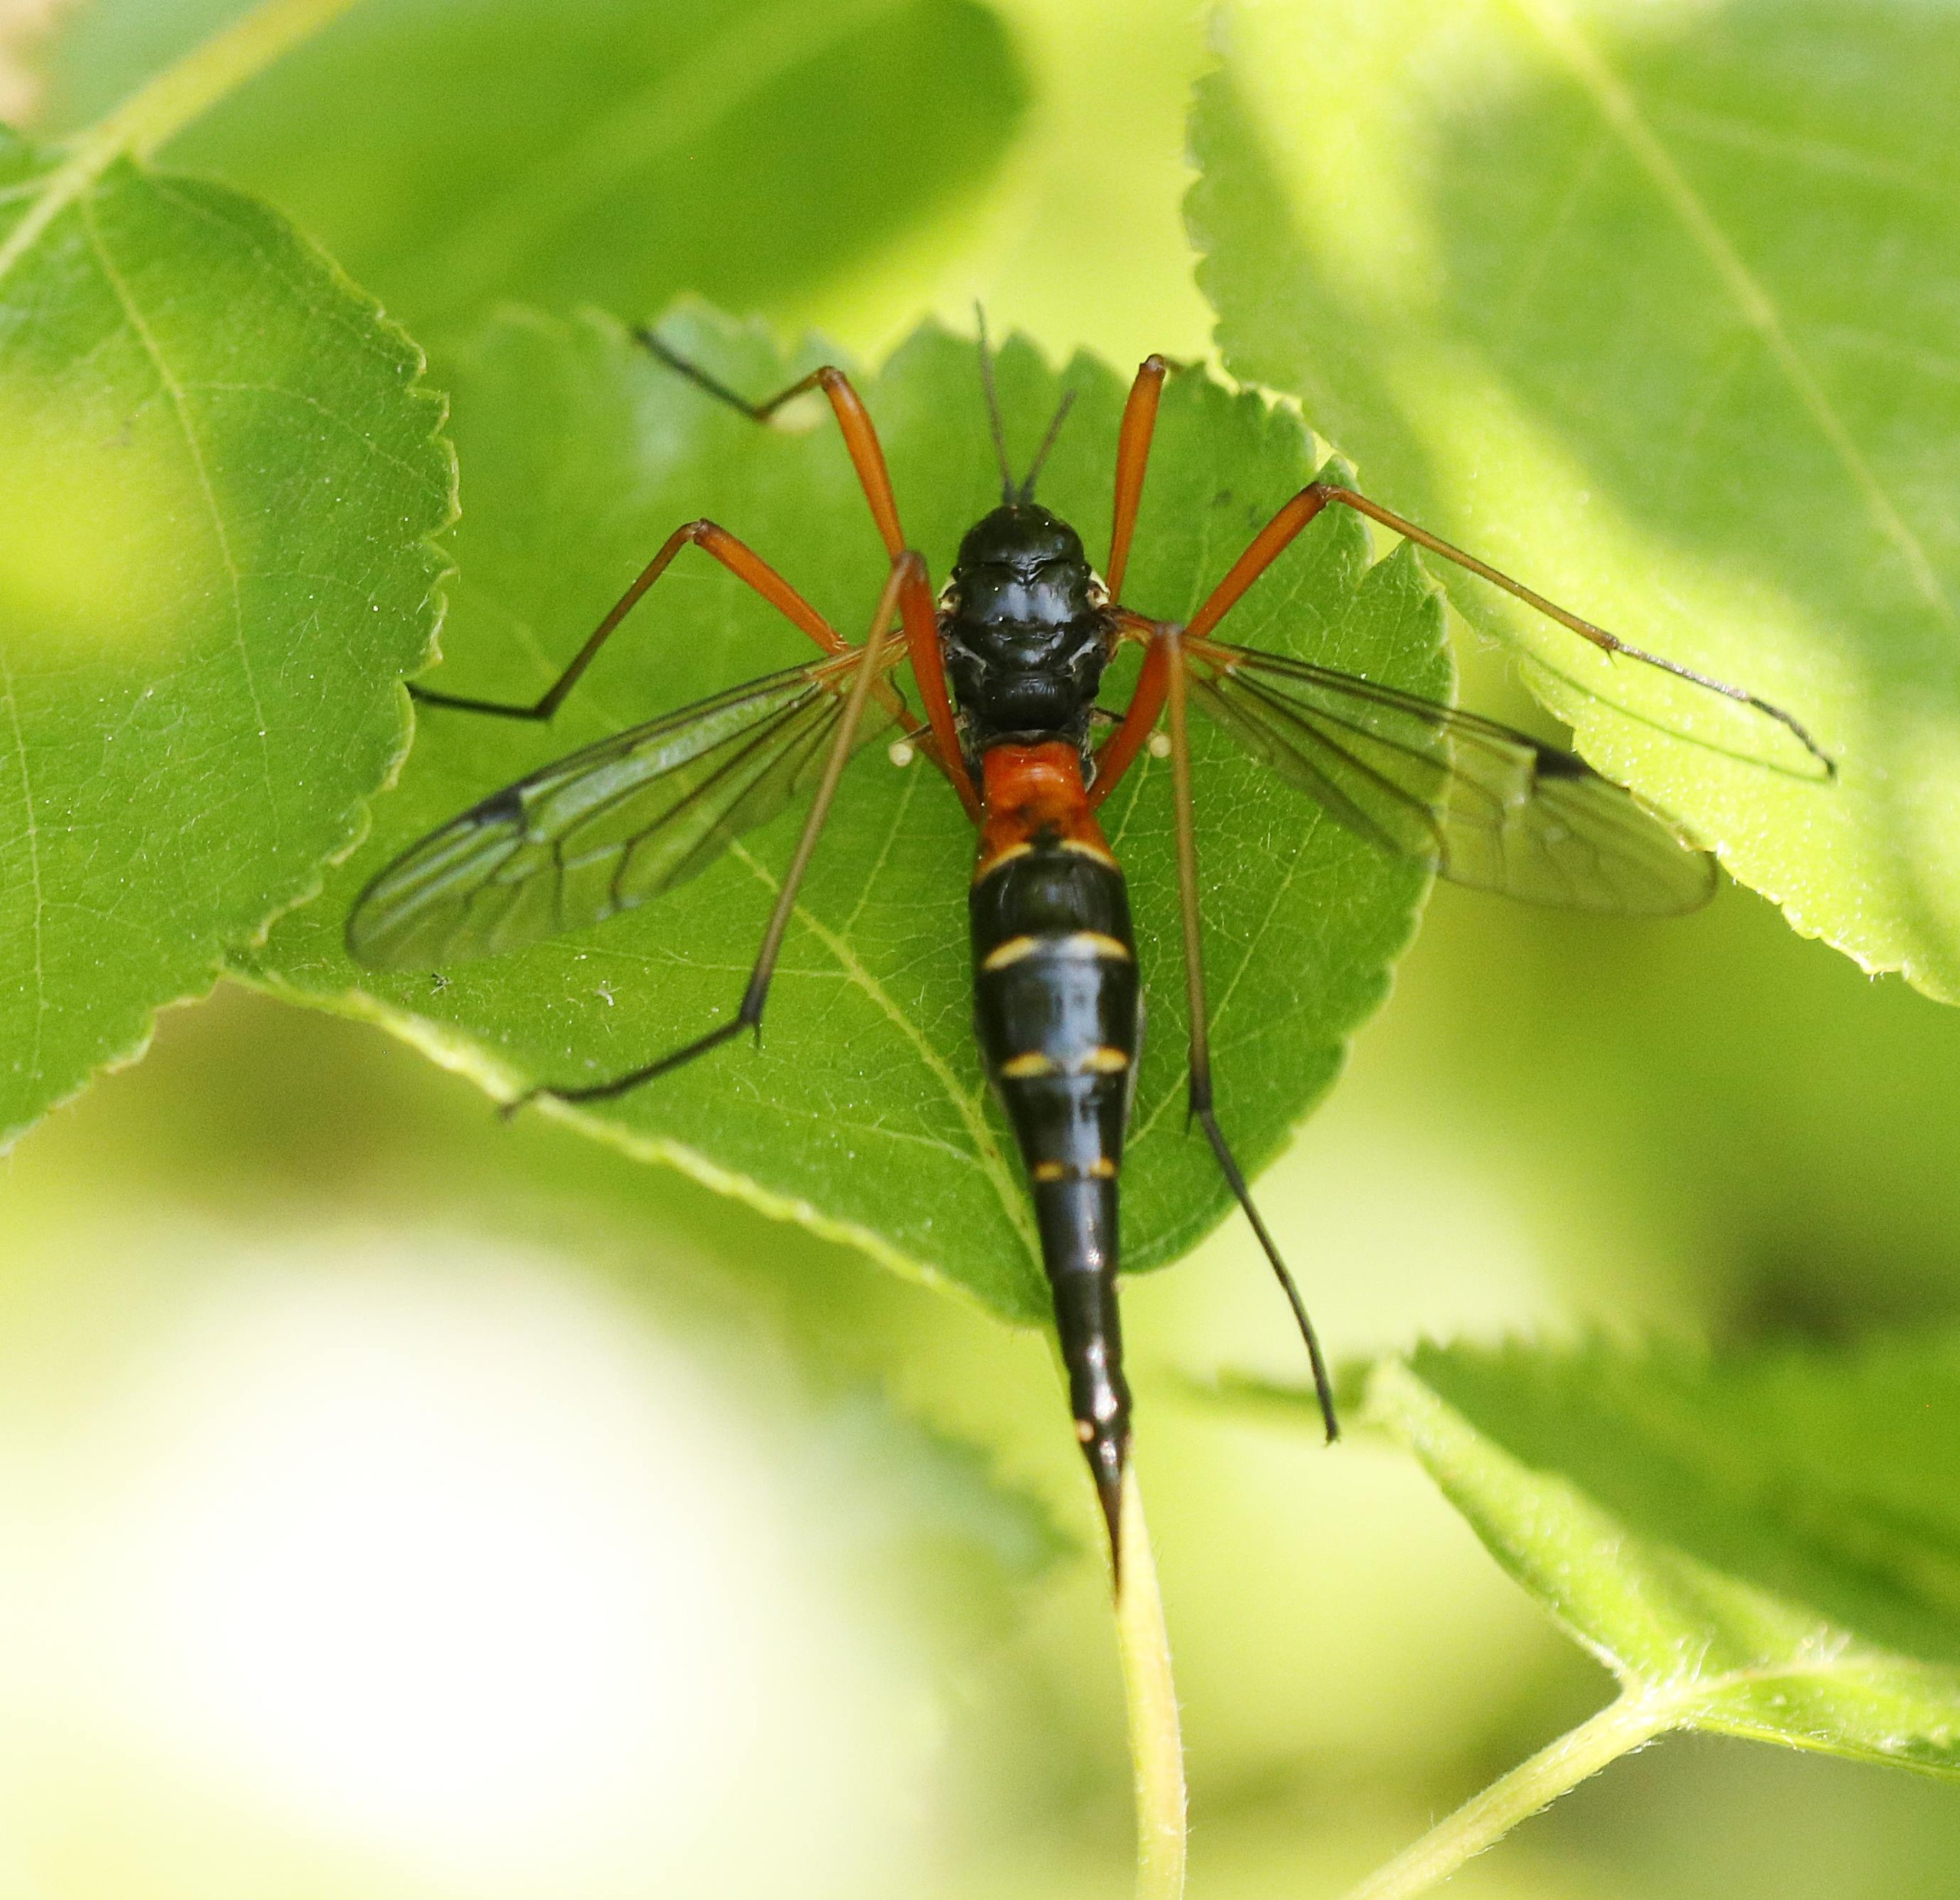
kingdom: Animalia
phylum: Arthropoda
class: Insecta
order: Diptera
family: Tipulidae
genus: Tanyptera
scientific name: Tanyptera atrata
